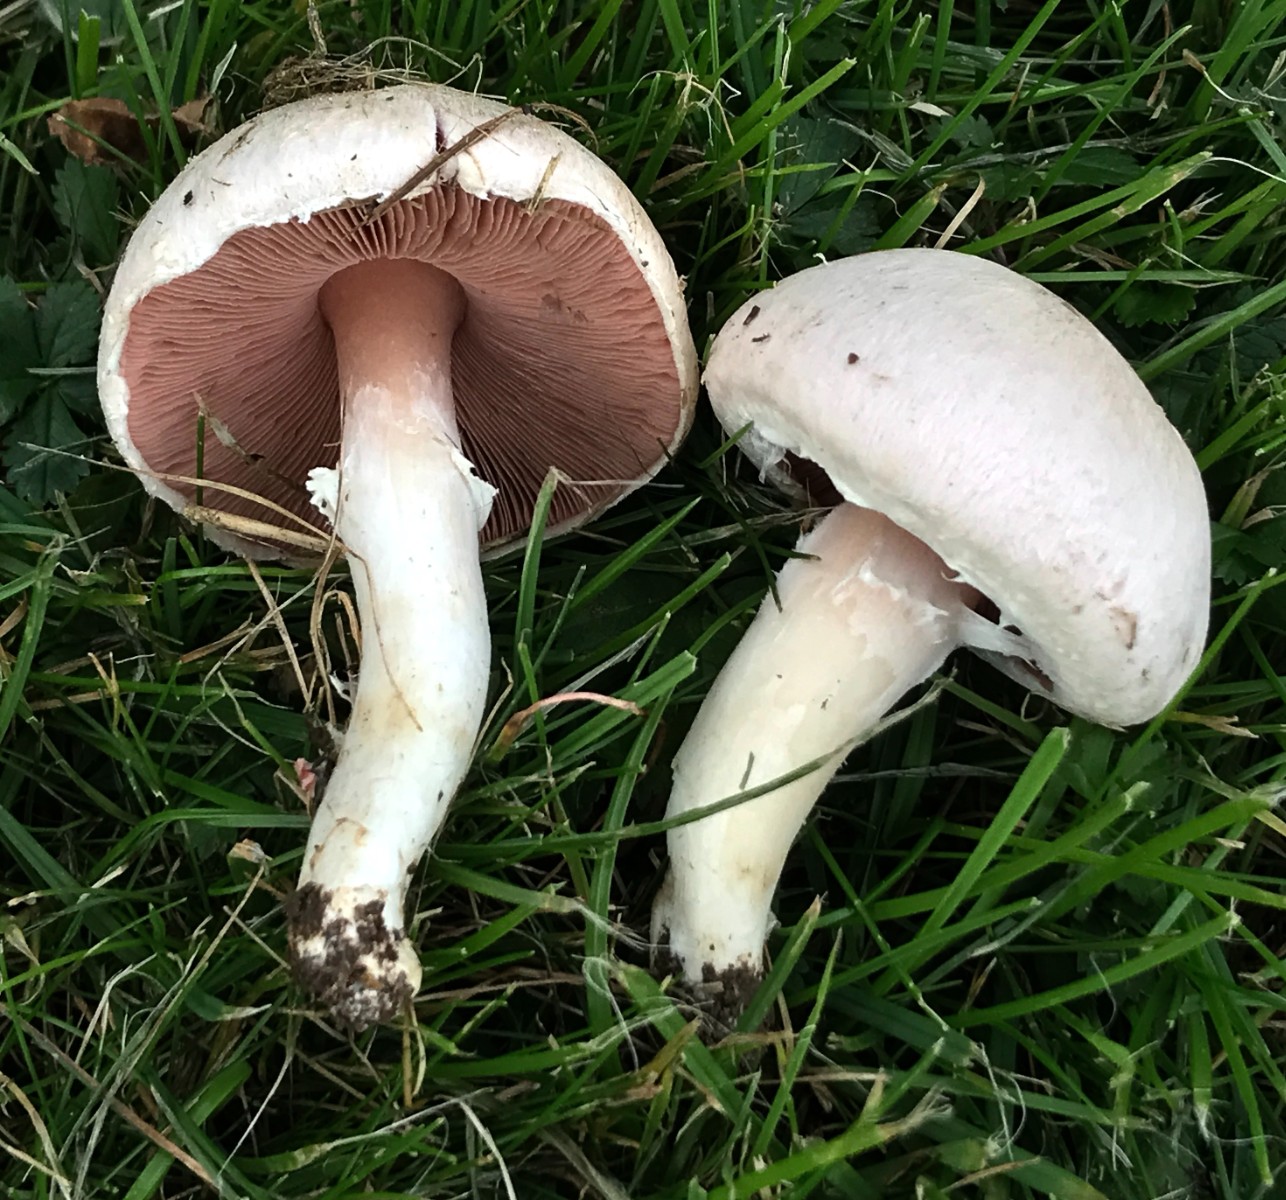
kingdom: Fungi
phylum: Basidiomycota
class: Agaricomycetes
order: Agaricales
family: Agaricaceae
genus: Agaricus
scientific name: Agaricus campestris
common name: mark-champignon
